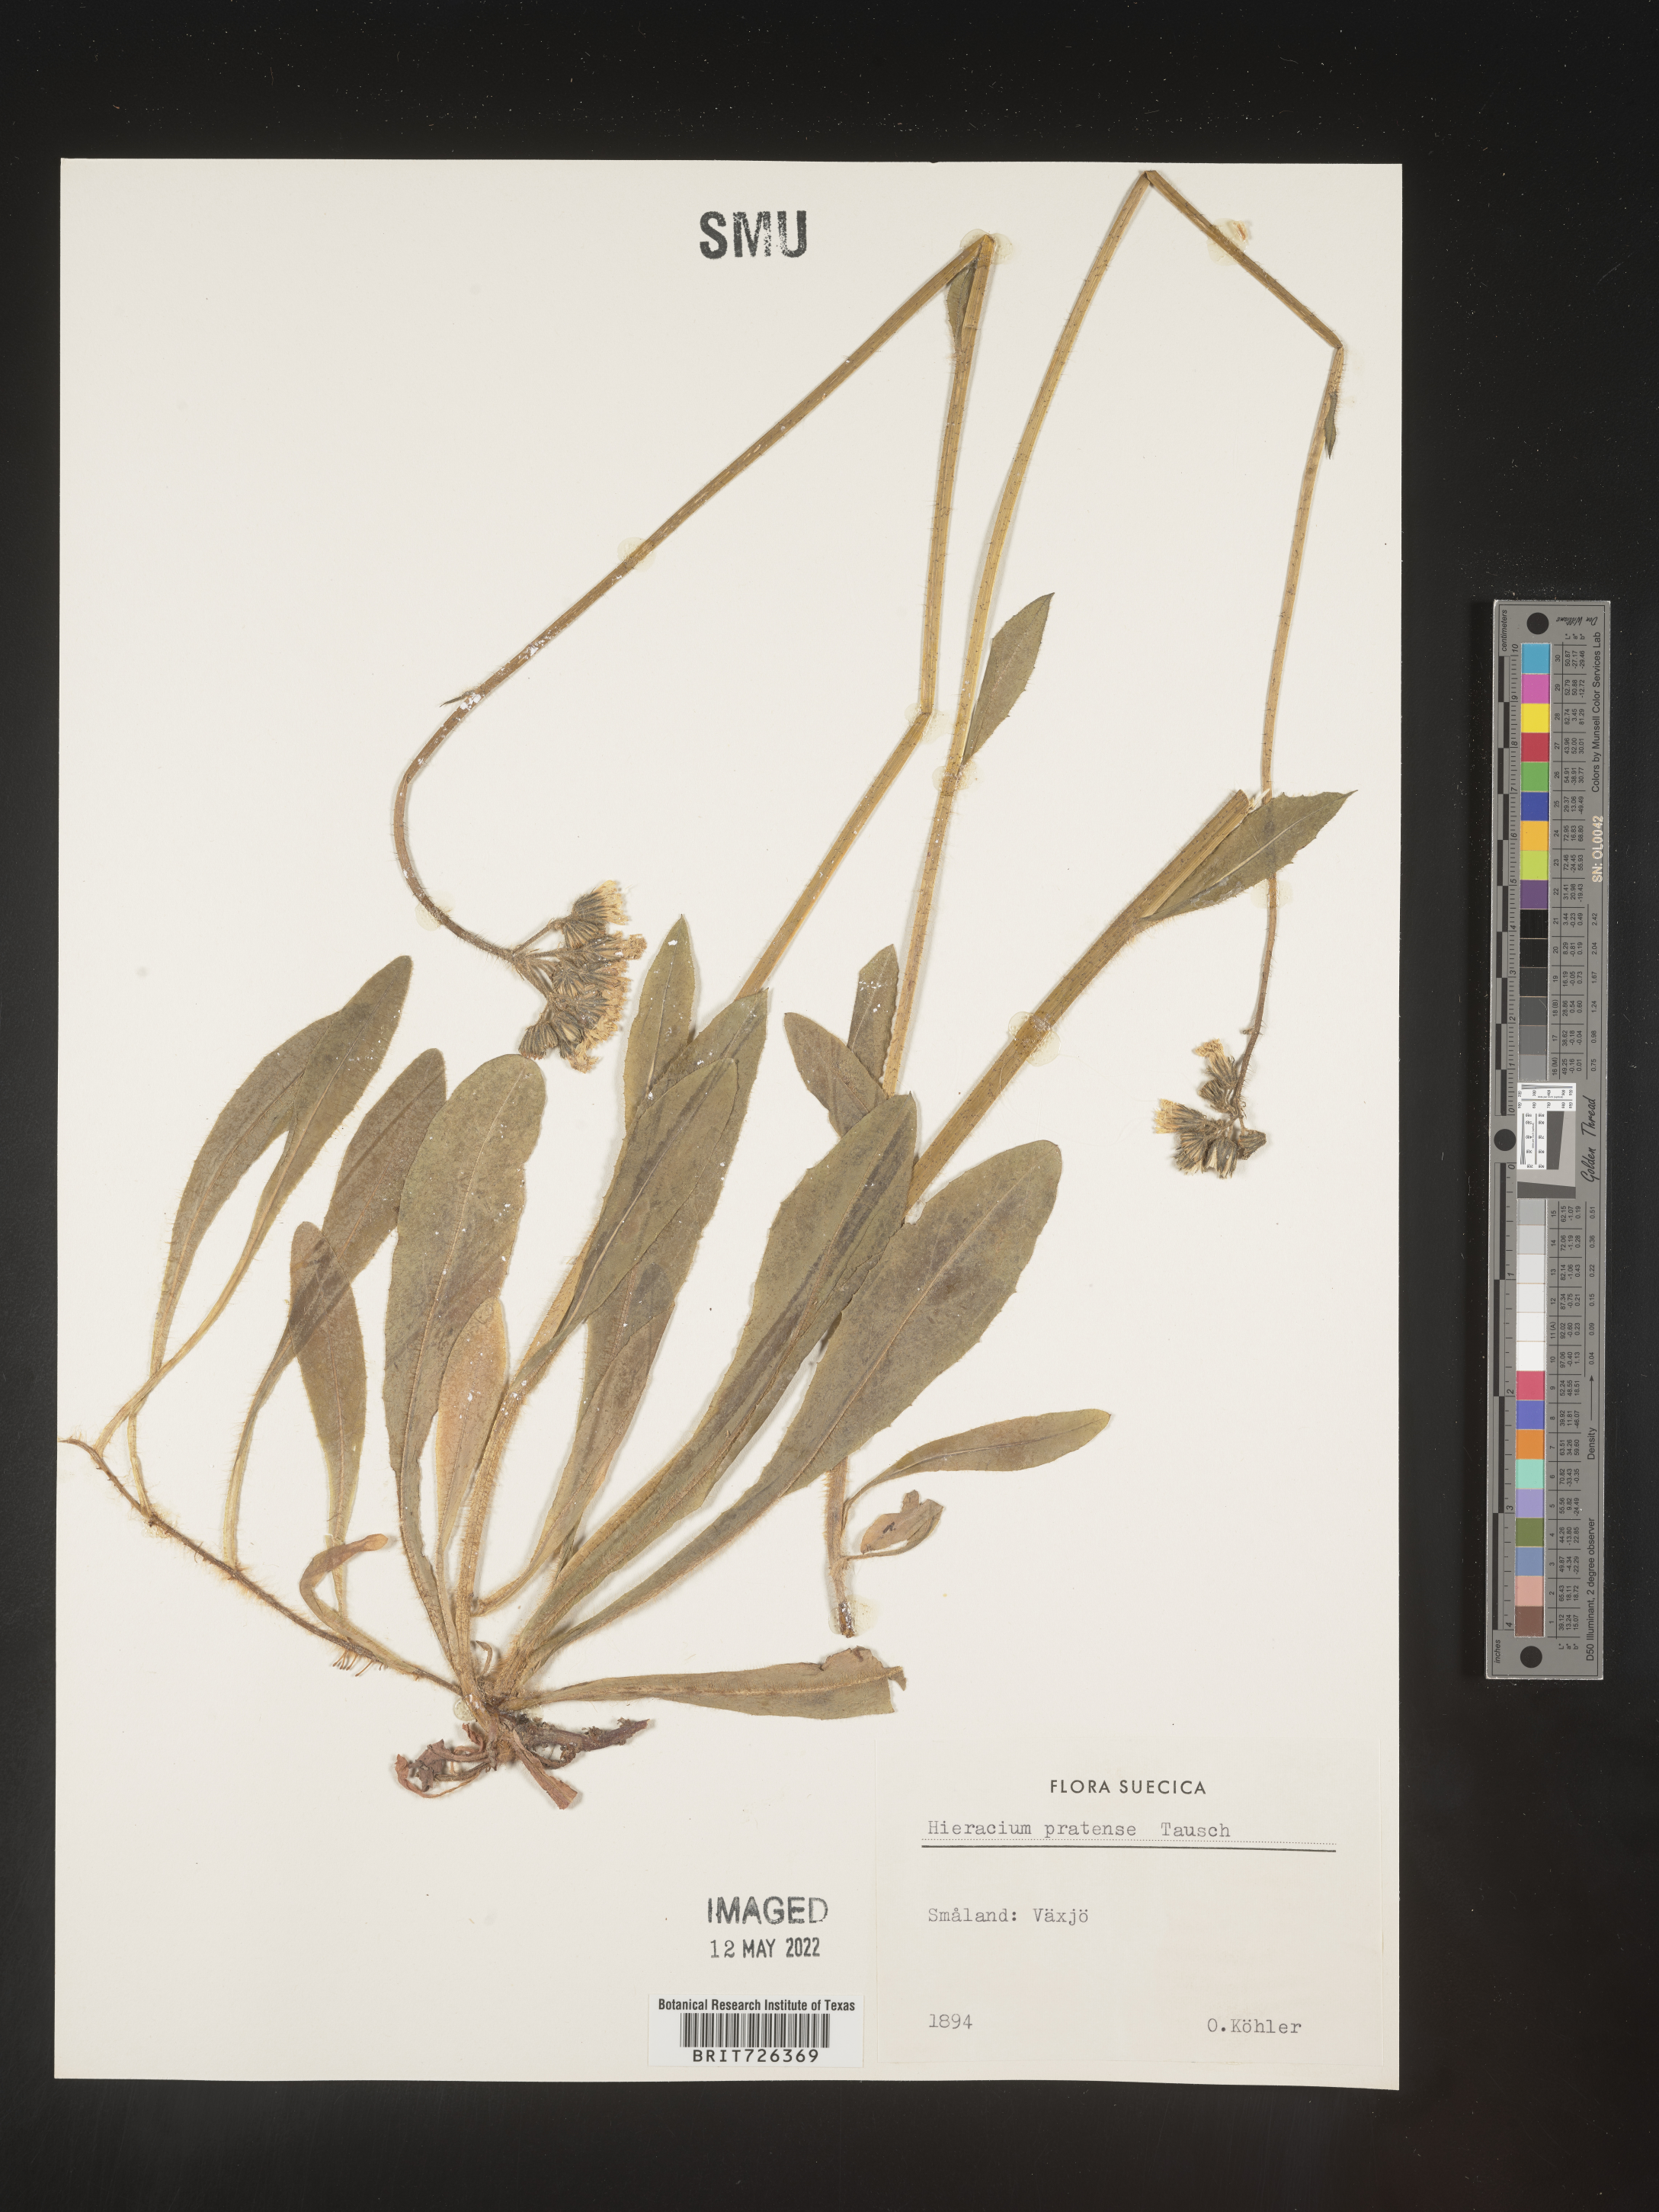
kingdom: Plantae
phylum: Tracheophyta
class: Magnoliopsida
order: Asterales
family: Asteraceae
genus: Hieracium
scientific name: Hieracium
